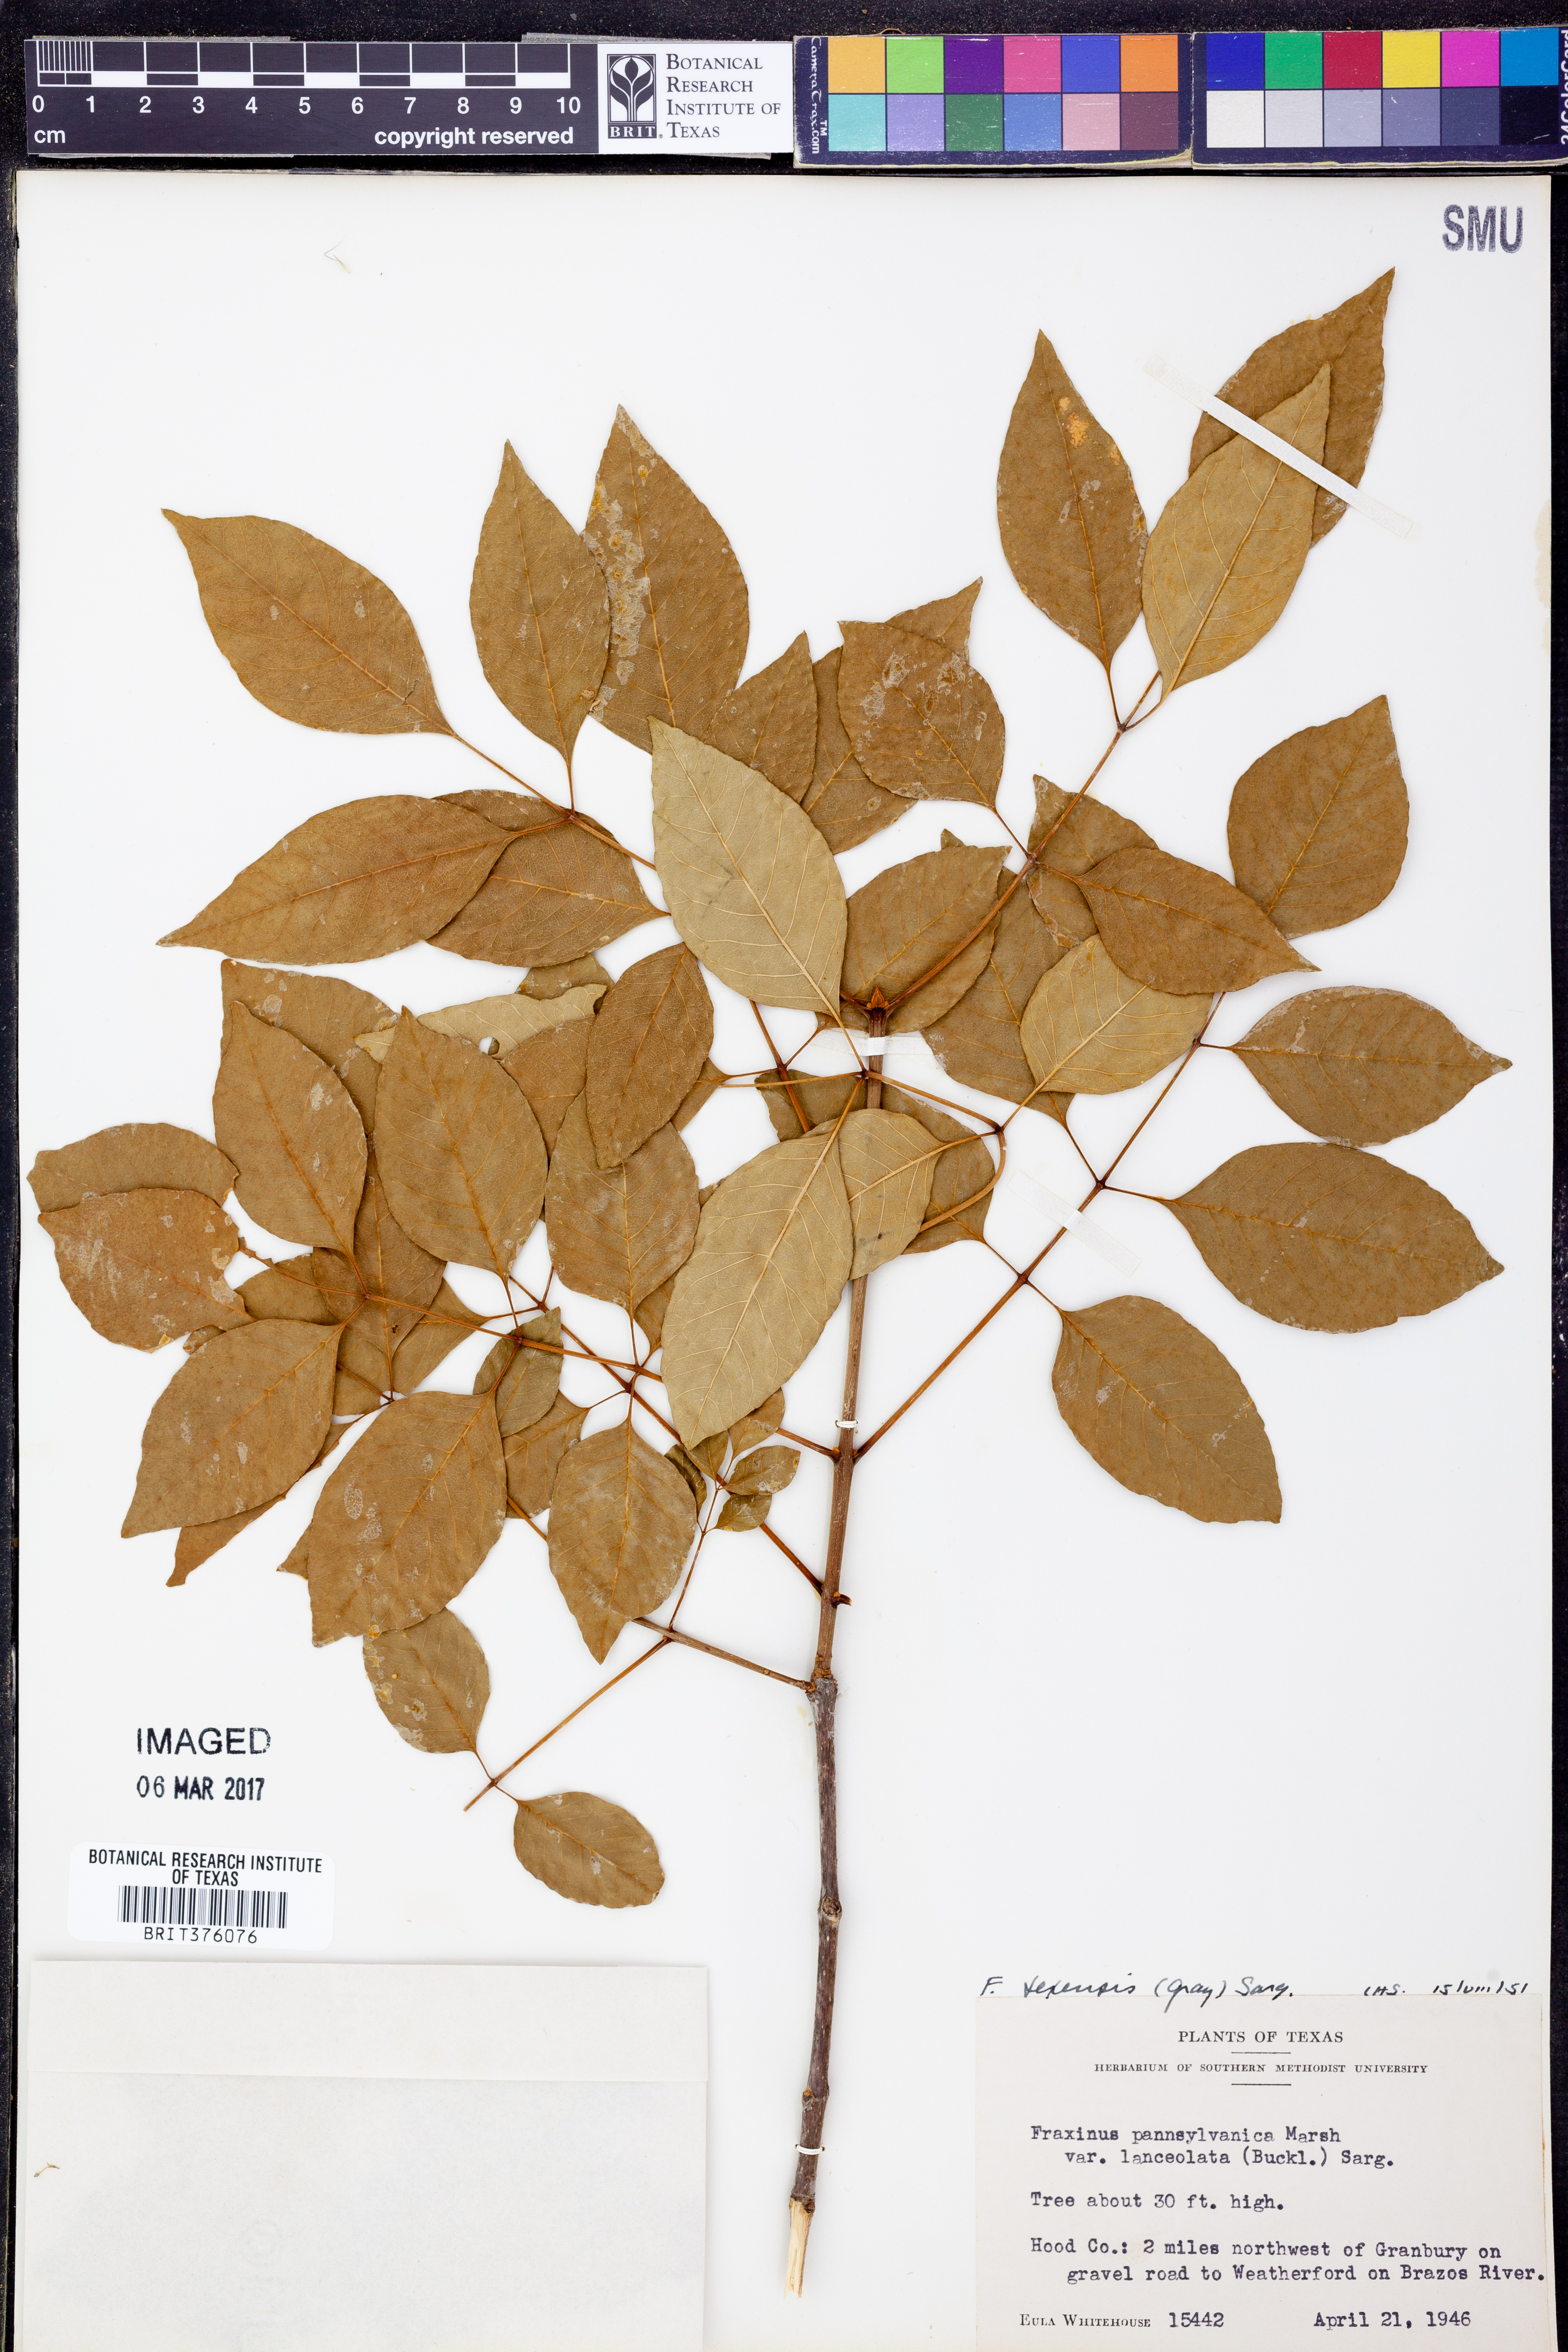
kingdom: Plantae
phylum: Tracheophyta
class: Magnoliopsida
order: Lamiales
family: Oleaceae
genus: Fraxinus
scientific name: Fraxinus albicans
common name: Texas ash
